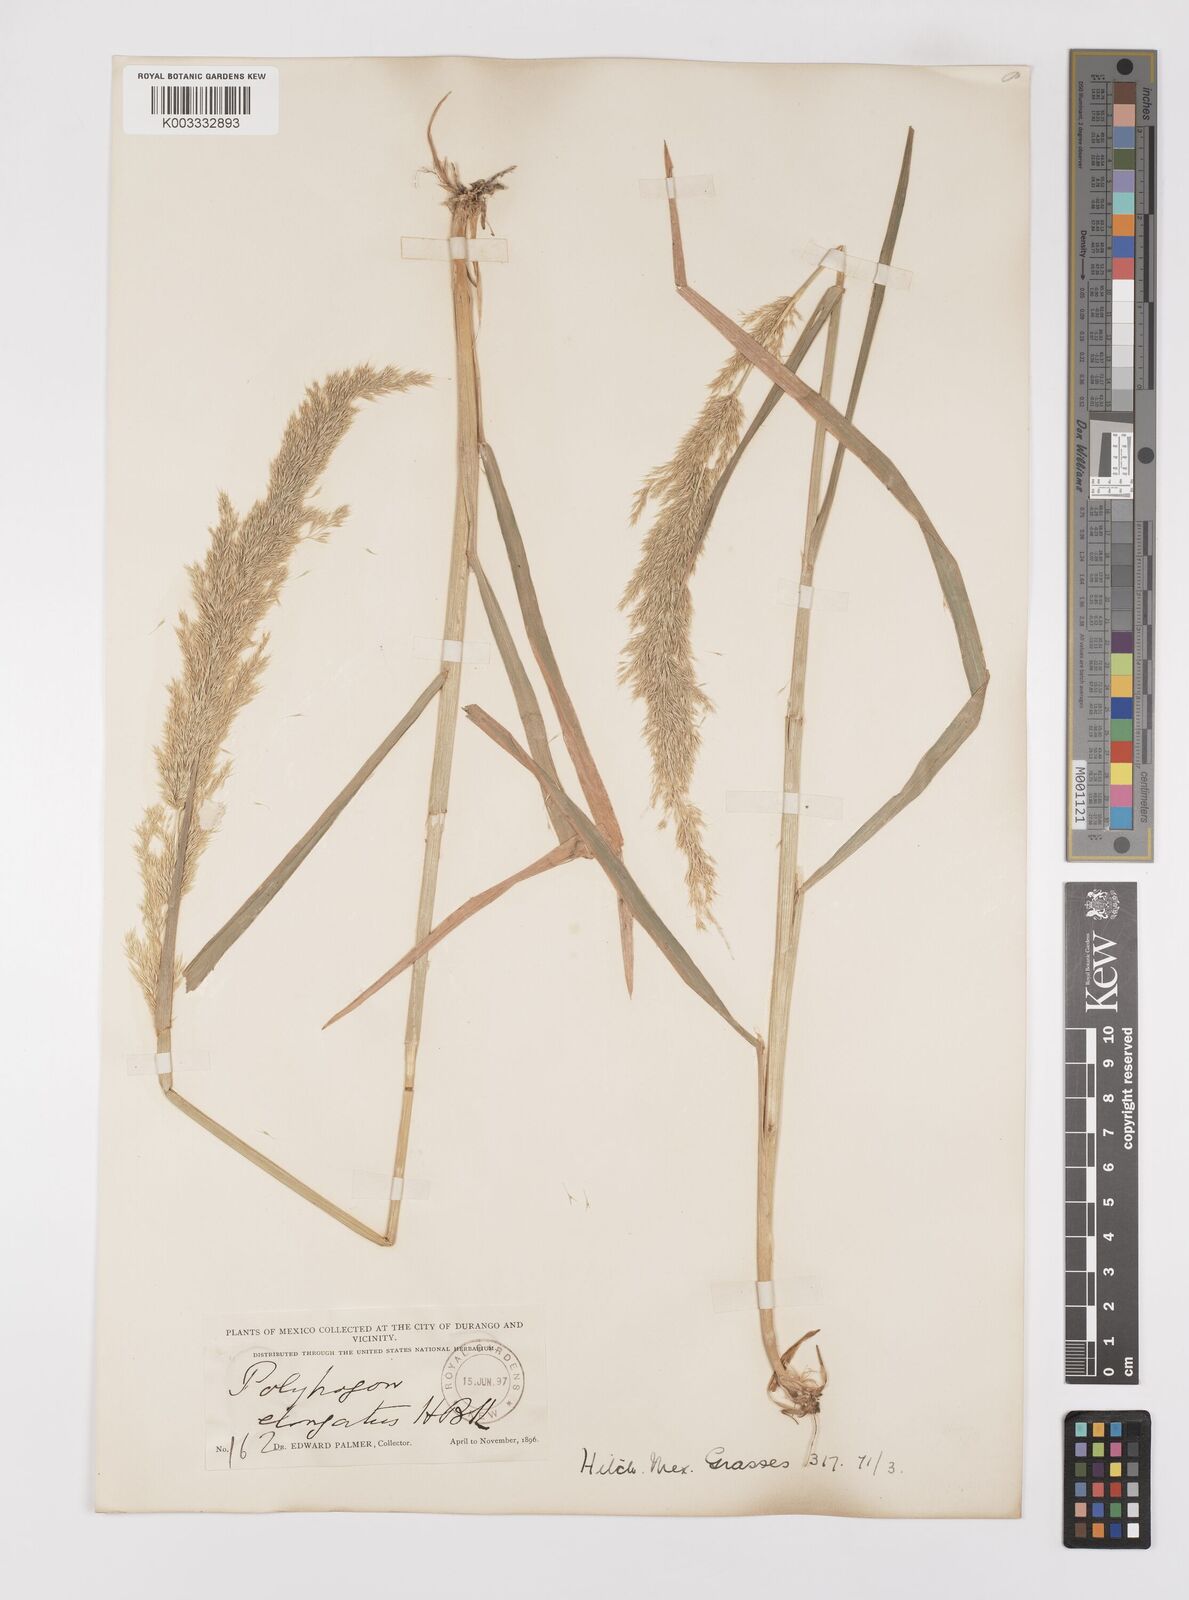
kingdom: Plantae
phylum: Tracheophyta
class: Liliopsida
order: Poales
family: Poaceae
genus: Polypogon
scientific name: Polypogon elongatus
